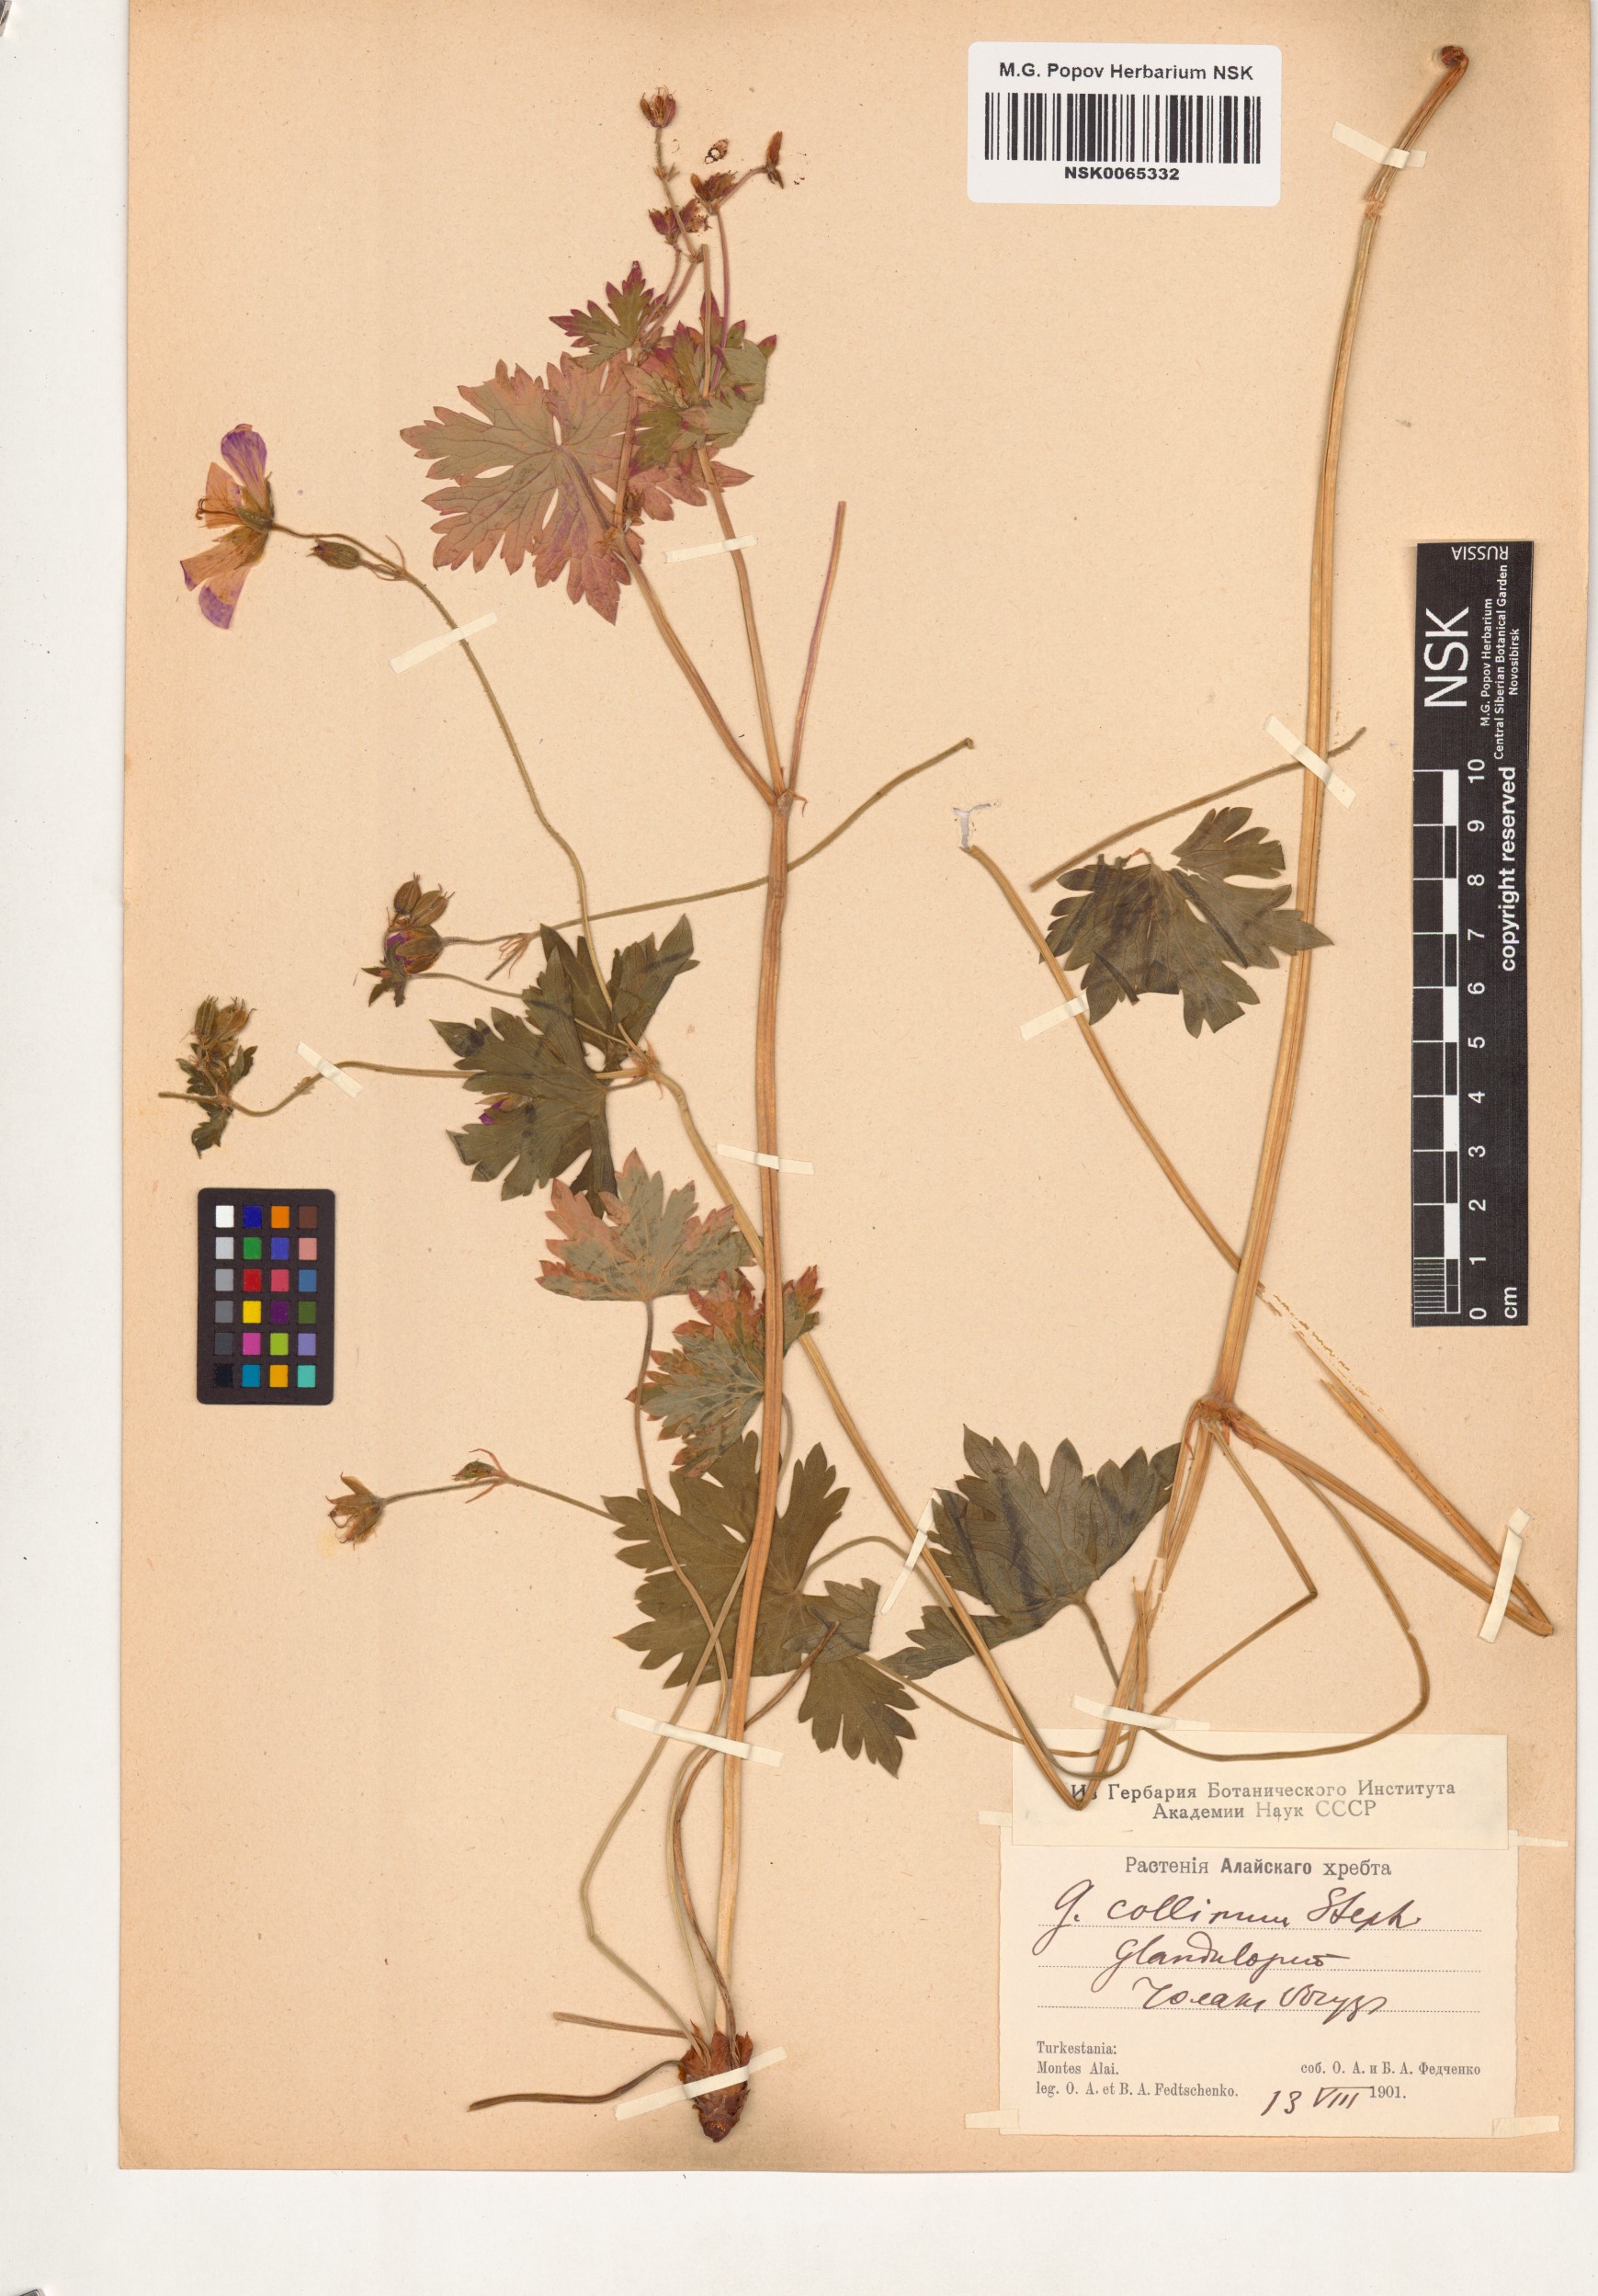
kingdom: Plantae
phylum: Tracheophyta
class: Magnoliopsida
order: Geraniales
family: Geraniaceae
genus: Geranium
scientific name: Geranium collinum
